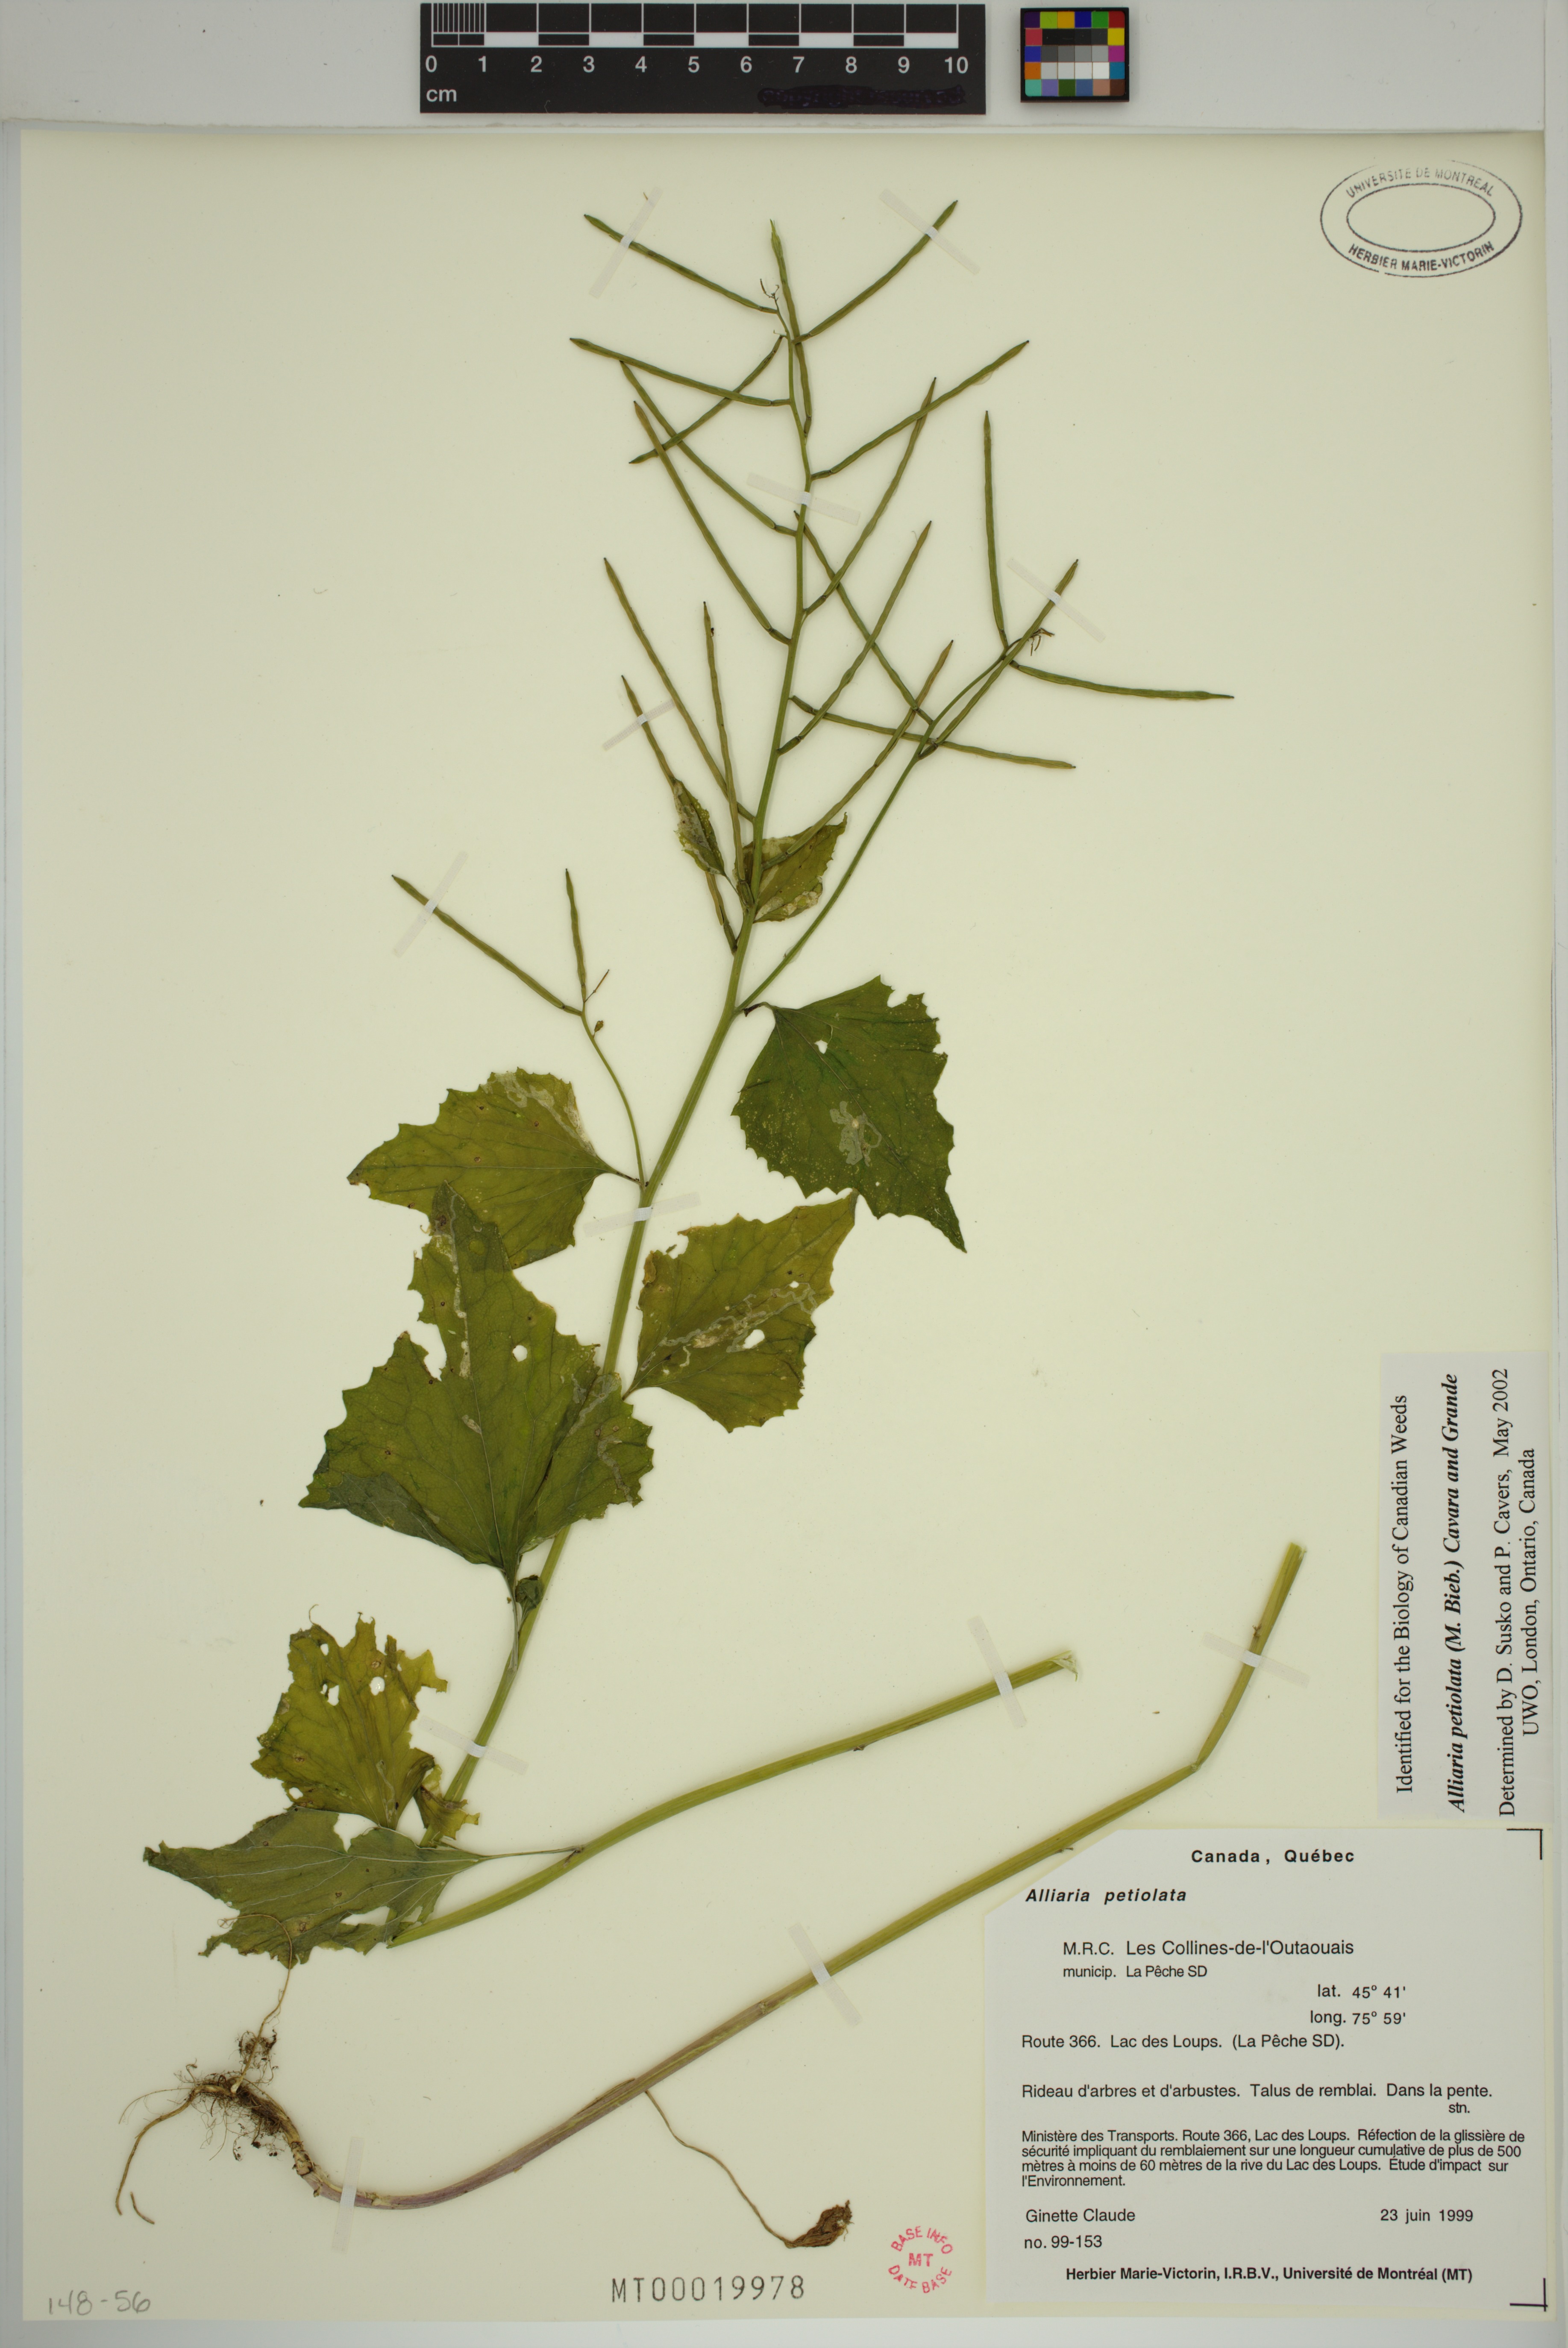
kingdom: Plantae
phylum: Tracheophyta
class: Magnoliopsida
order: Brassicales
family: Brassicaceae
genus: Alliaria
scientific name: Alliaria petiolata
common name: Garlic mustard
